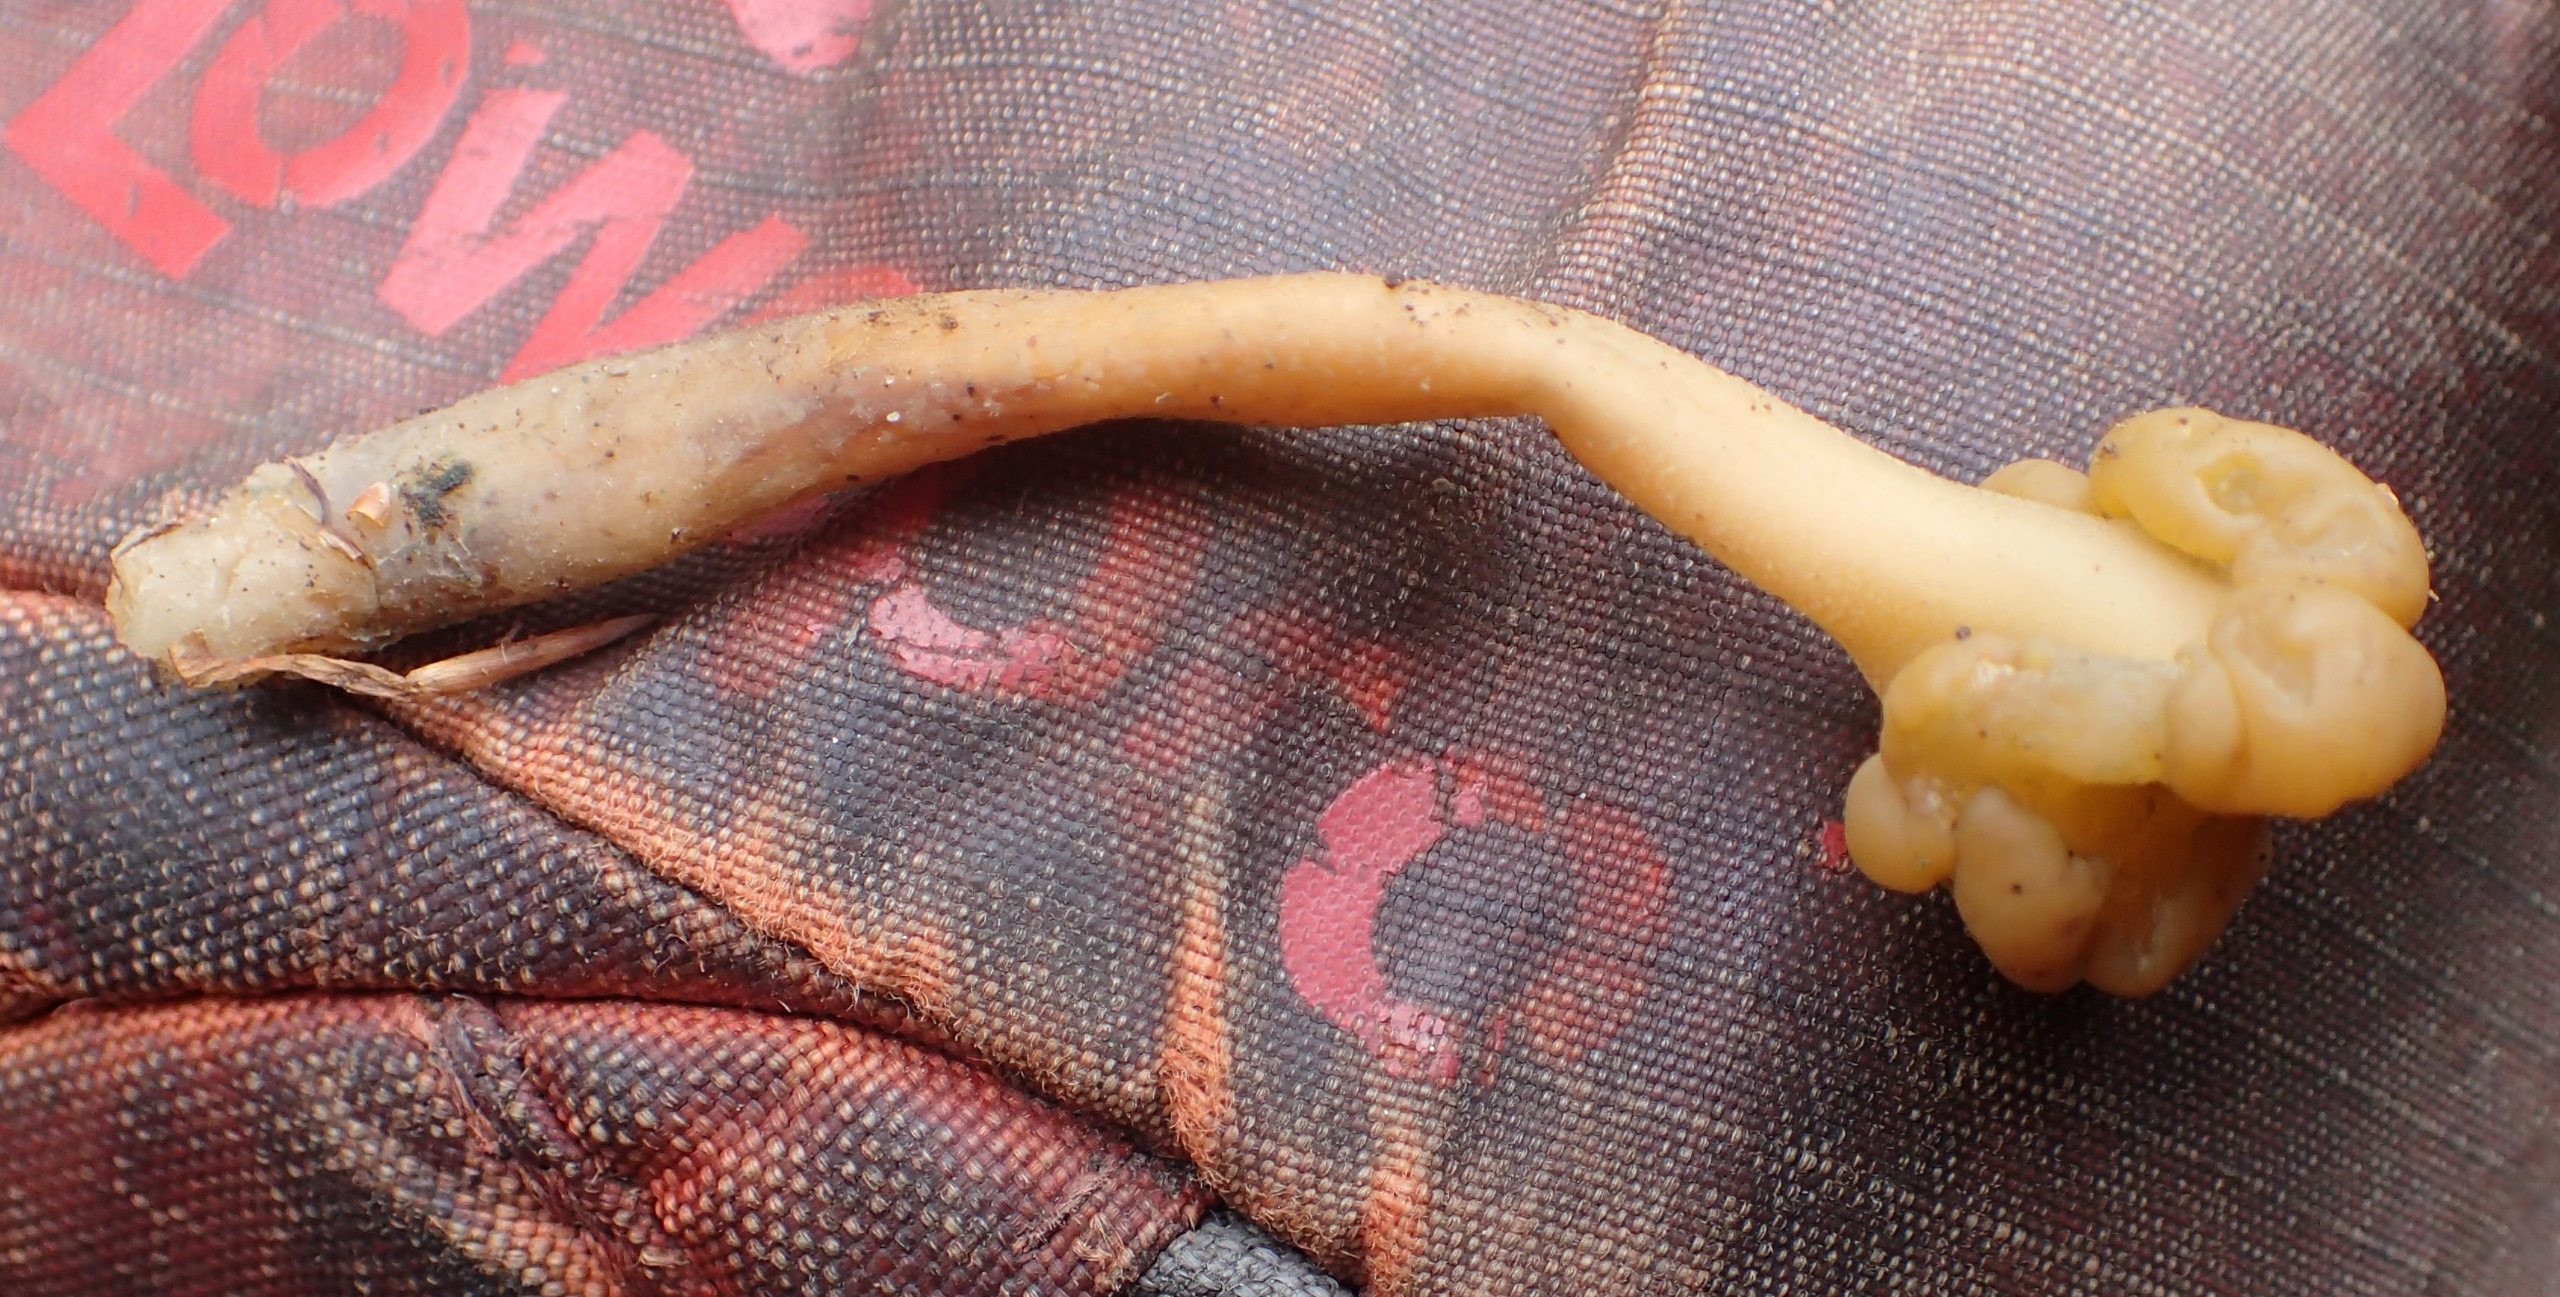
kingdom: Fungi
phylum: Ascomycota
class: Leotiomycetes
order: Leotiales
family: Leotiaceae
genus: Leotia
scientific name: Leotia lubrica
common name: Ravsvamp
